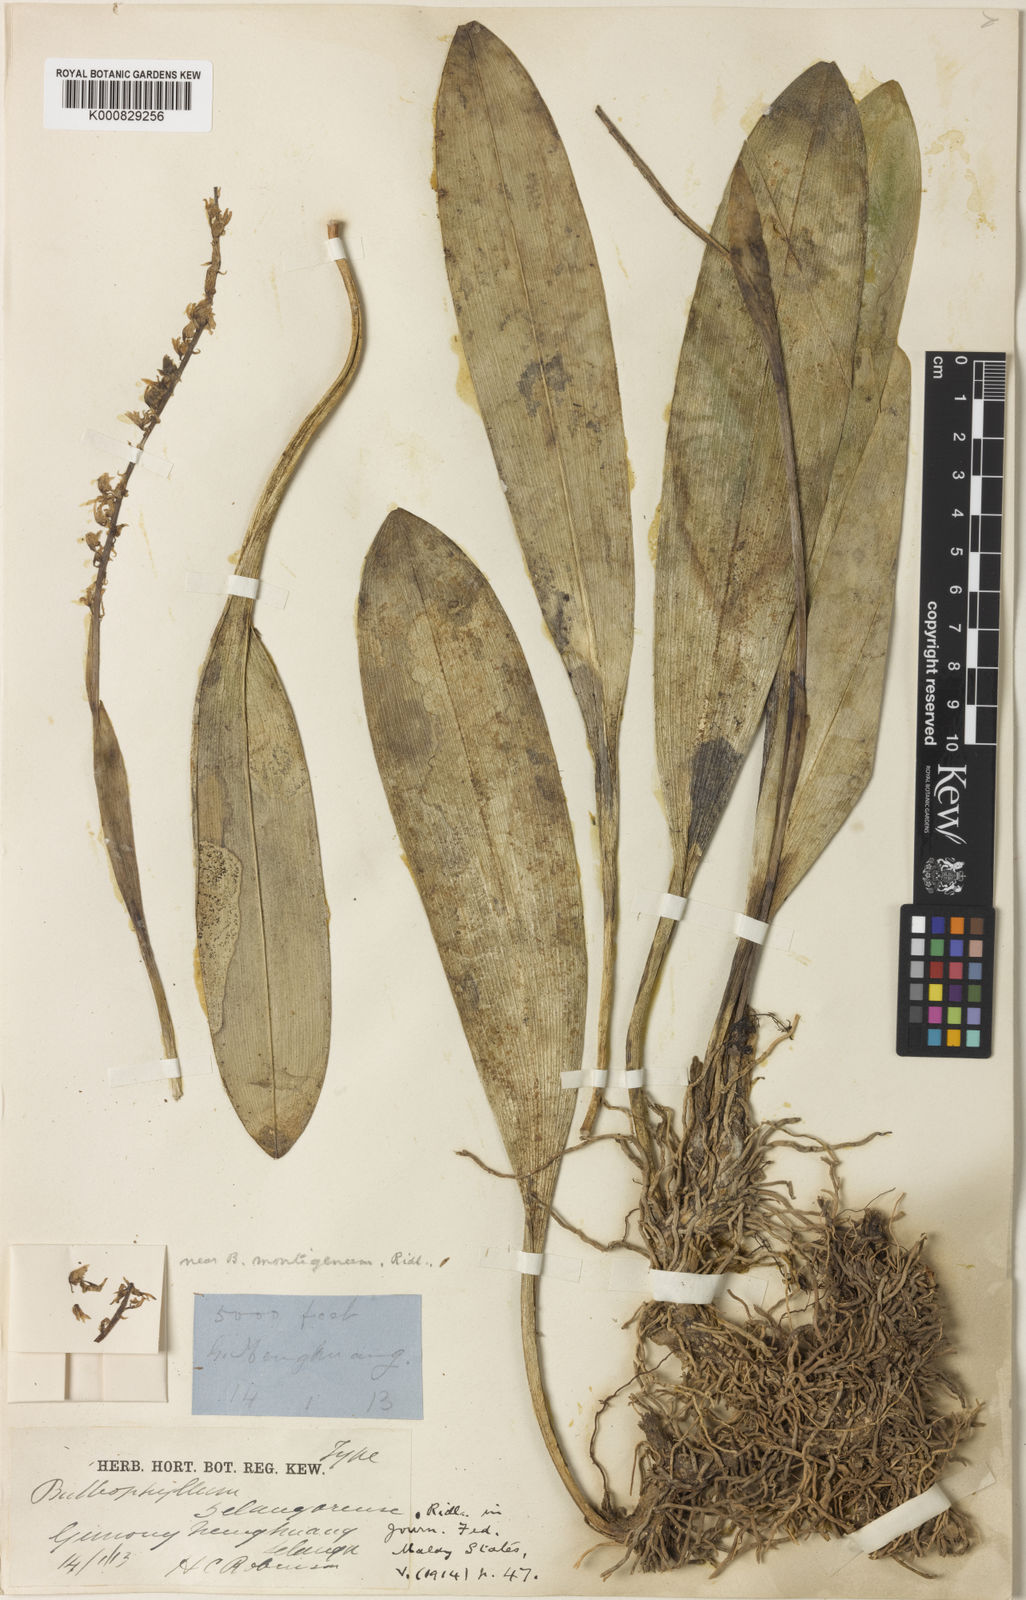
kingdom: Plantae
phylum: Tracheophyta
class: Liliopsida
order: Asparagales
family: Orchidaceae
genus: Bulbophyllum
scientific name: Bulbophyllum gibbosum
